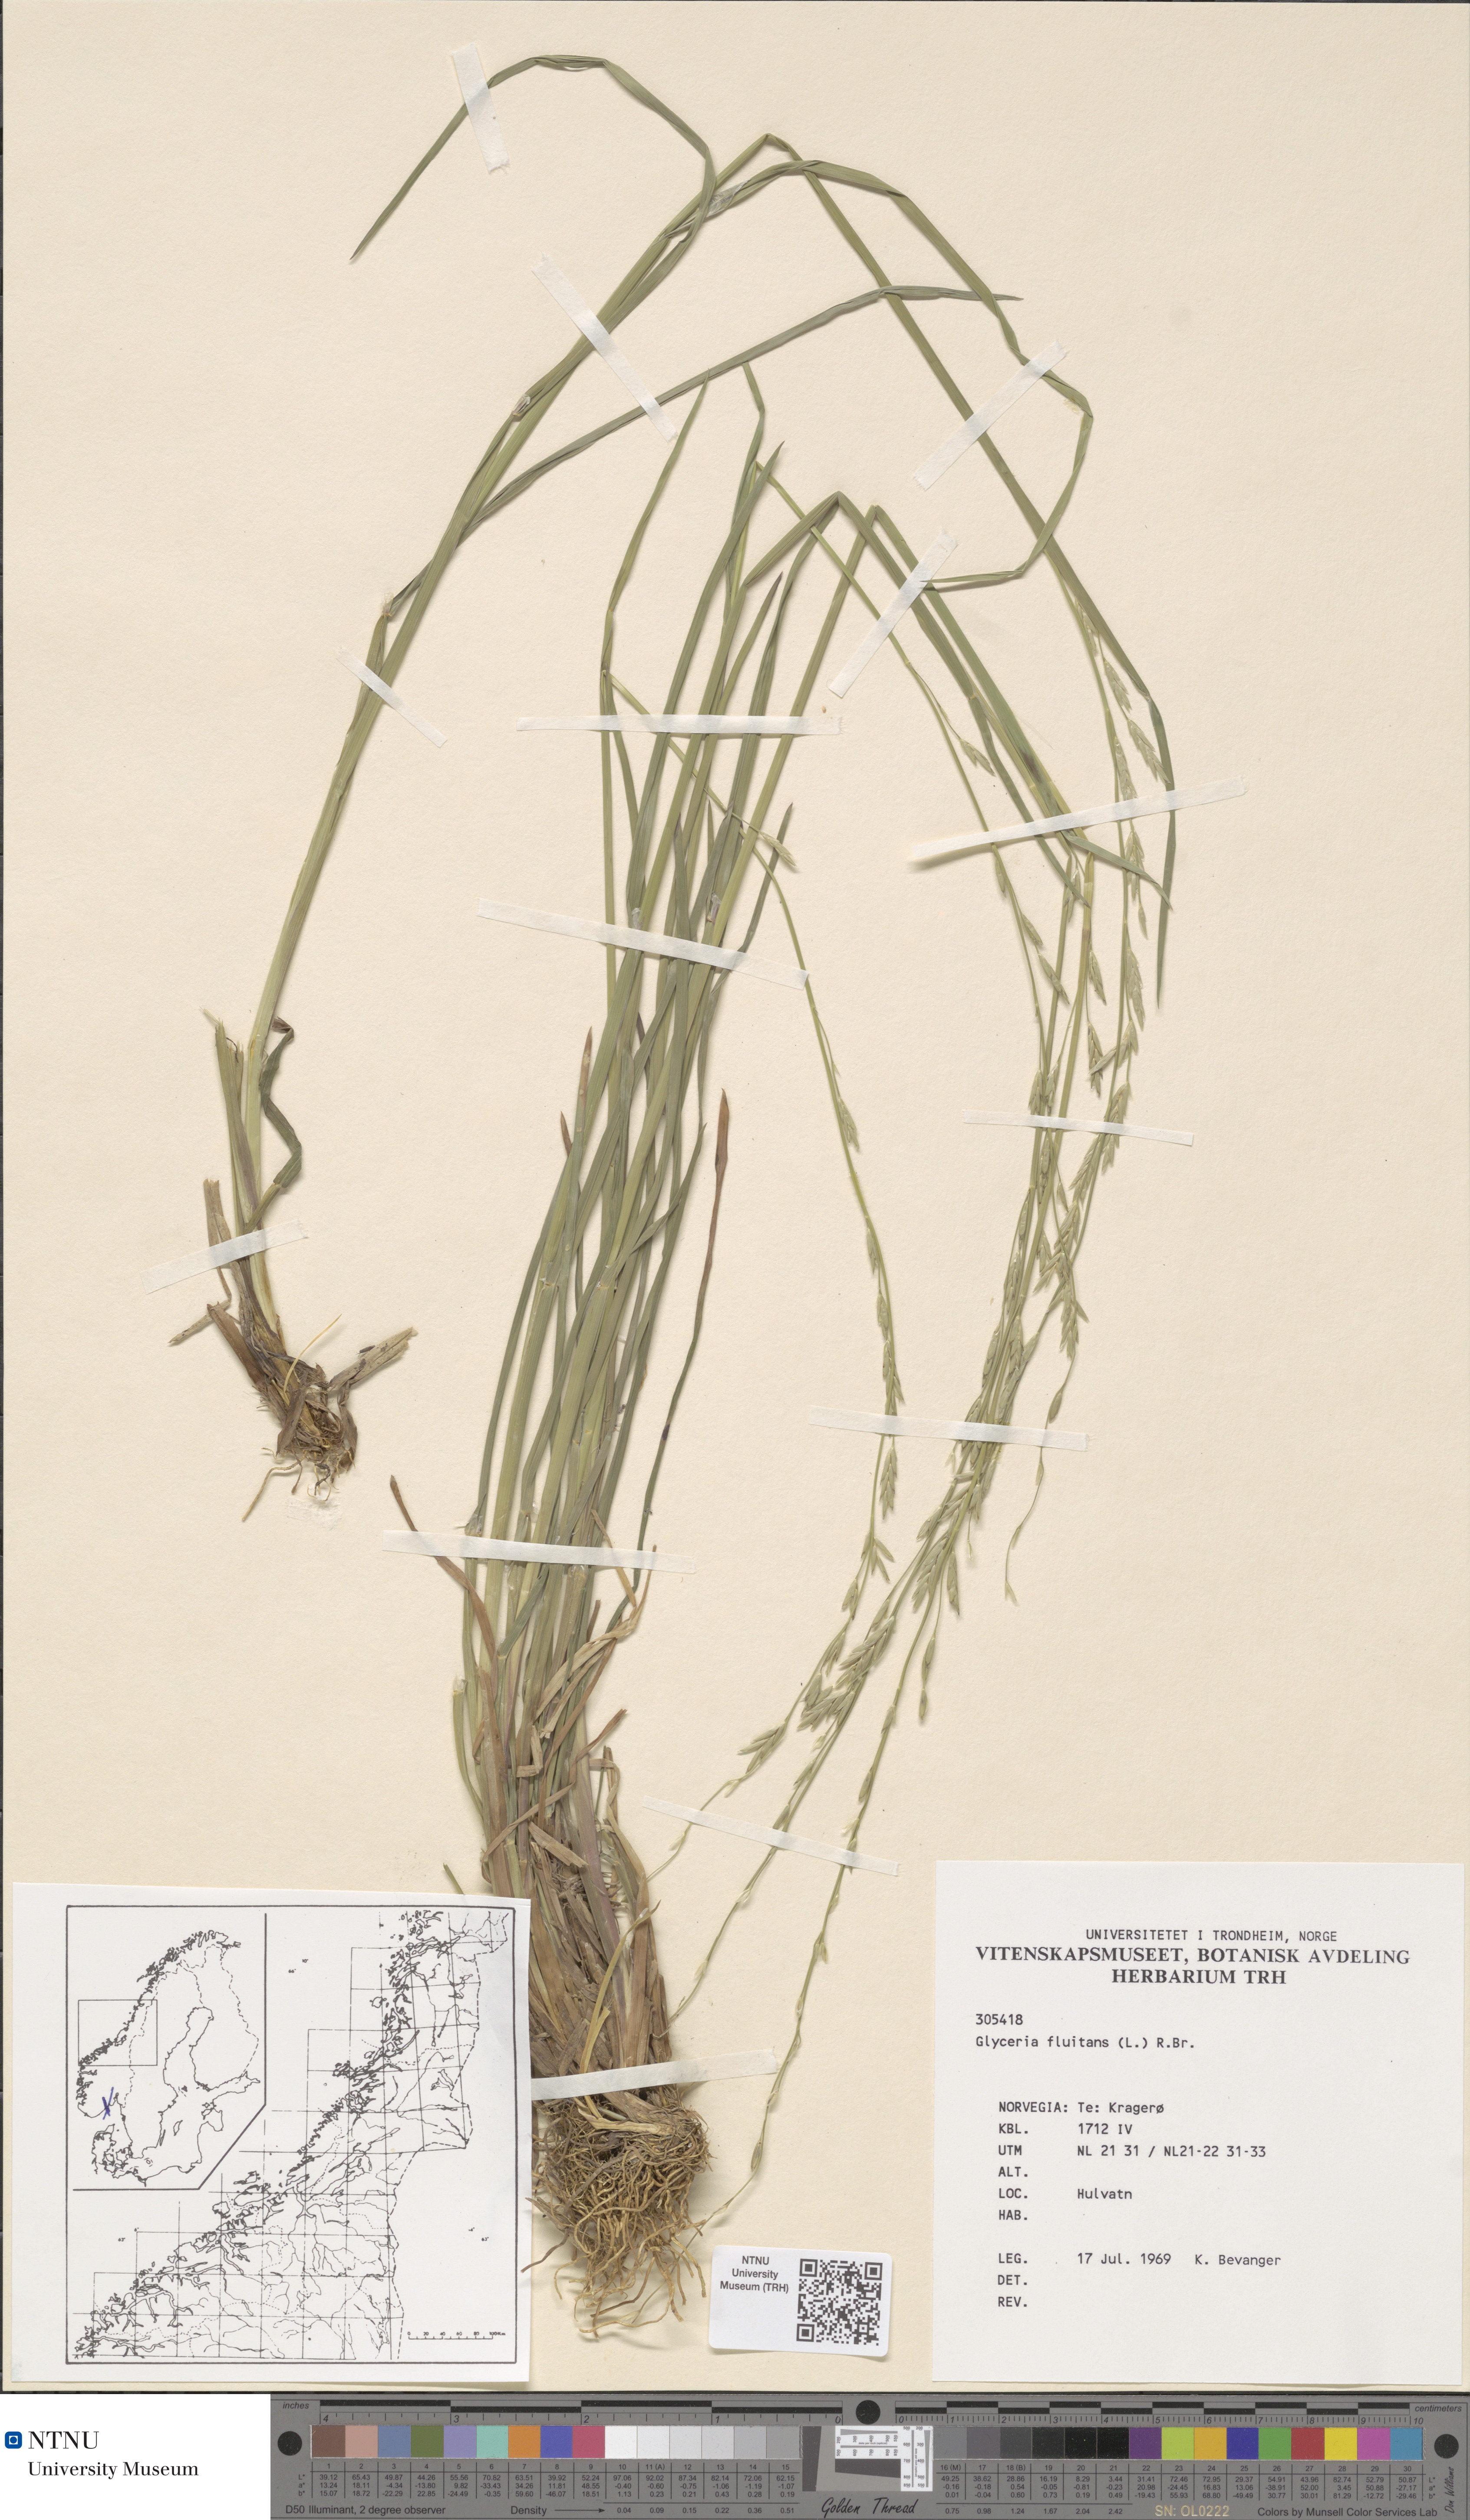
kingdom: Plantae
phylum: Tracheophyta
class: Liliopsida
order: Poales
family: Poaceae
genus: Glyceria
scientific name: Glyceria fluitans
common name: Floating sweet-grass
